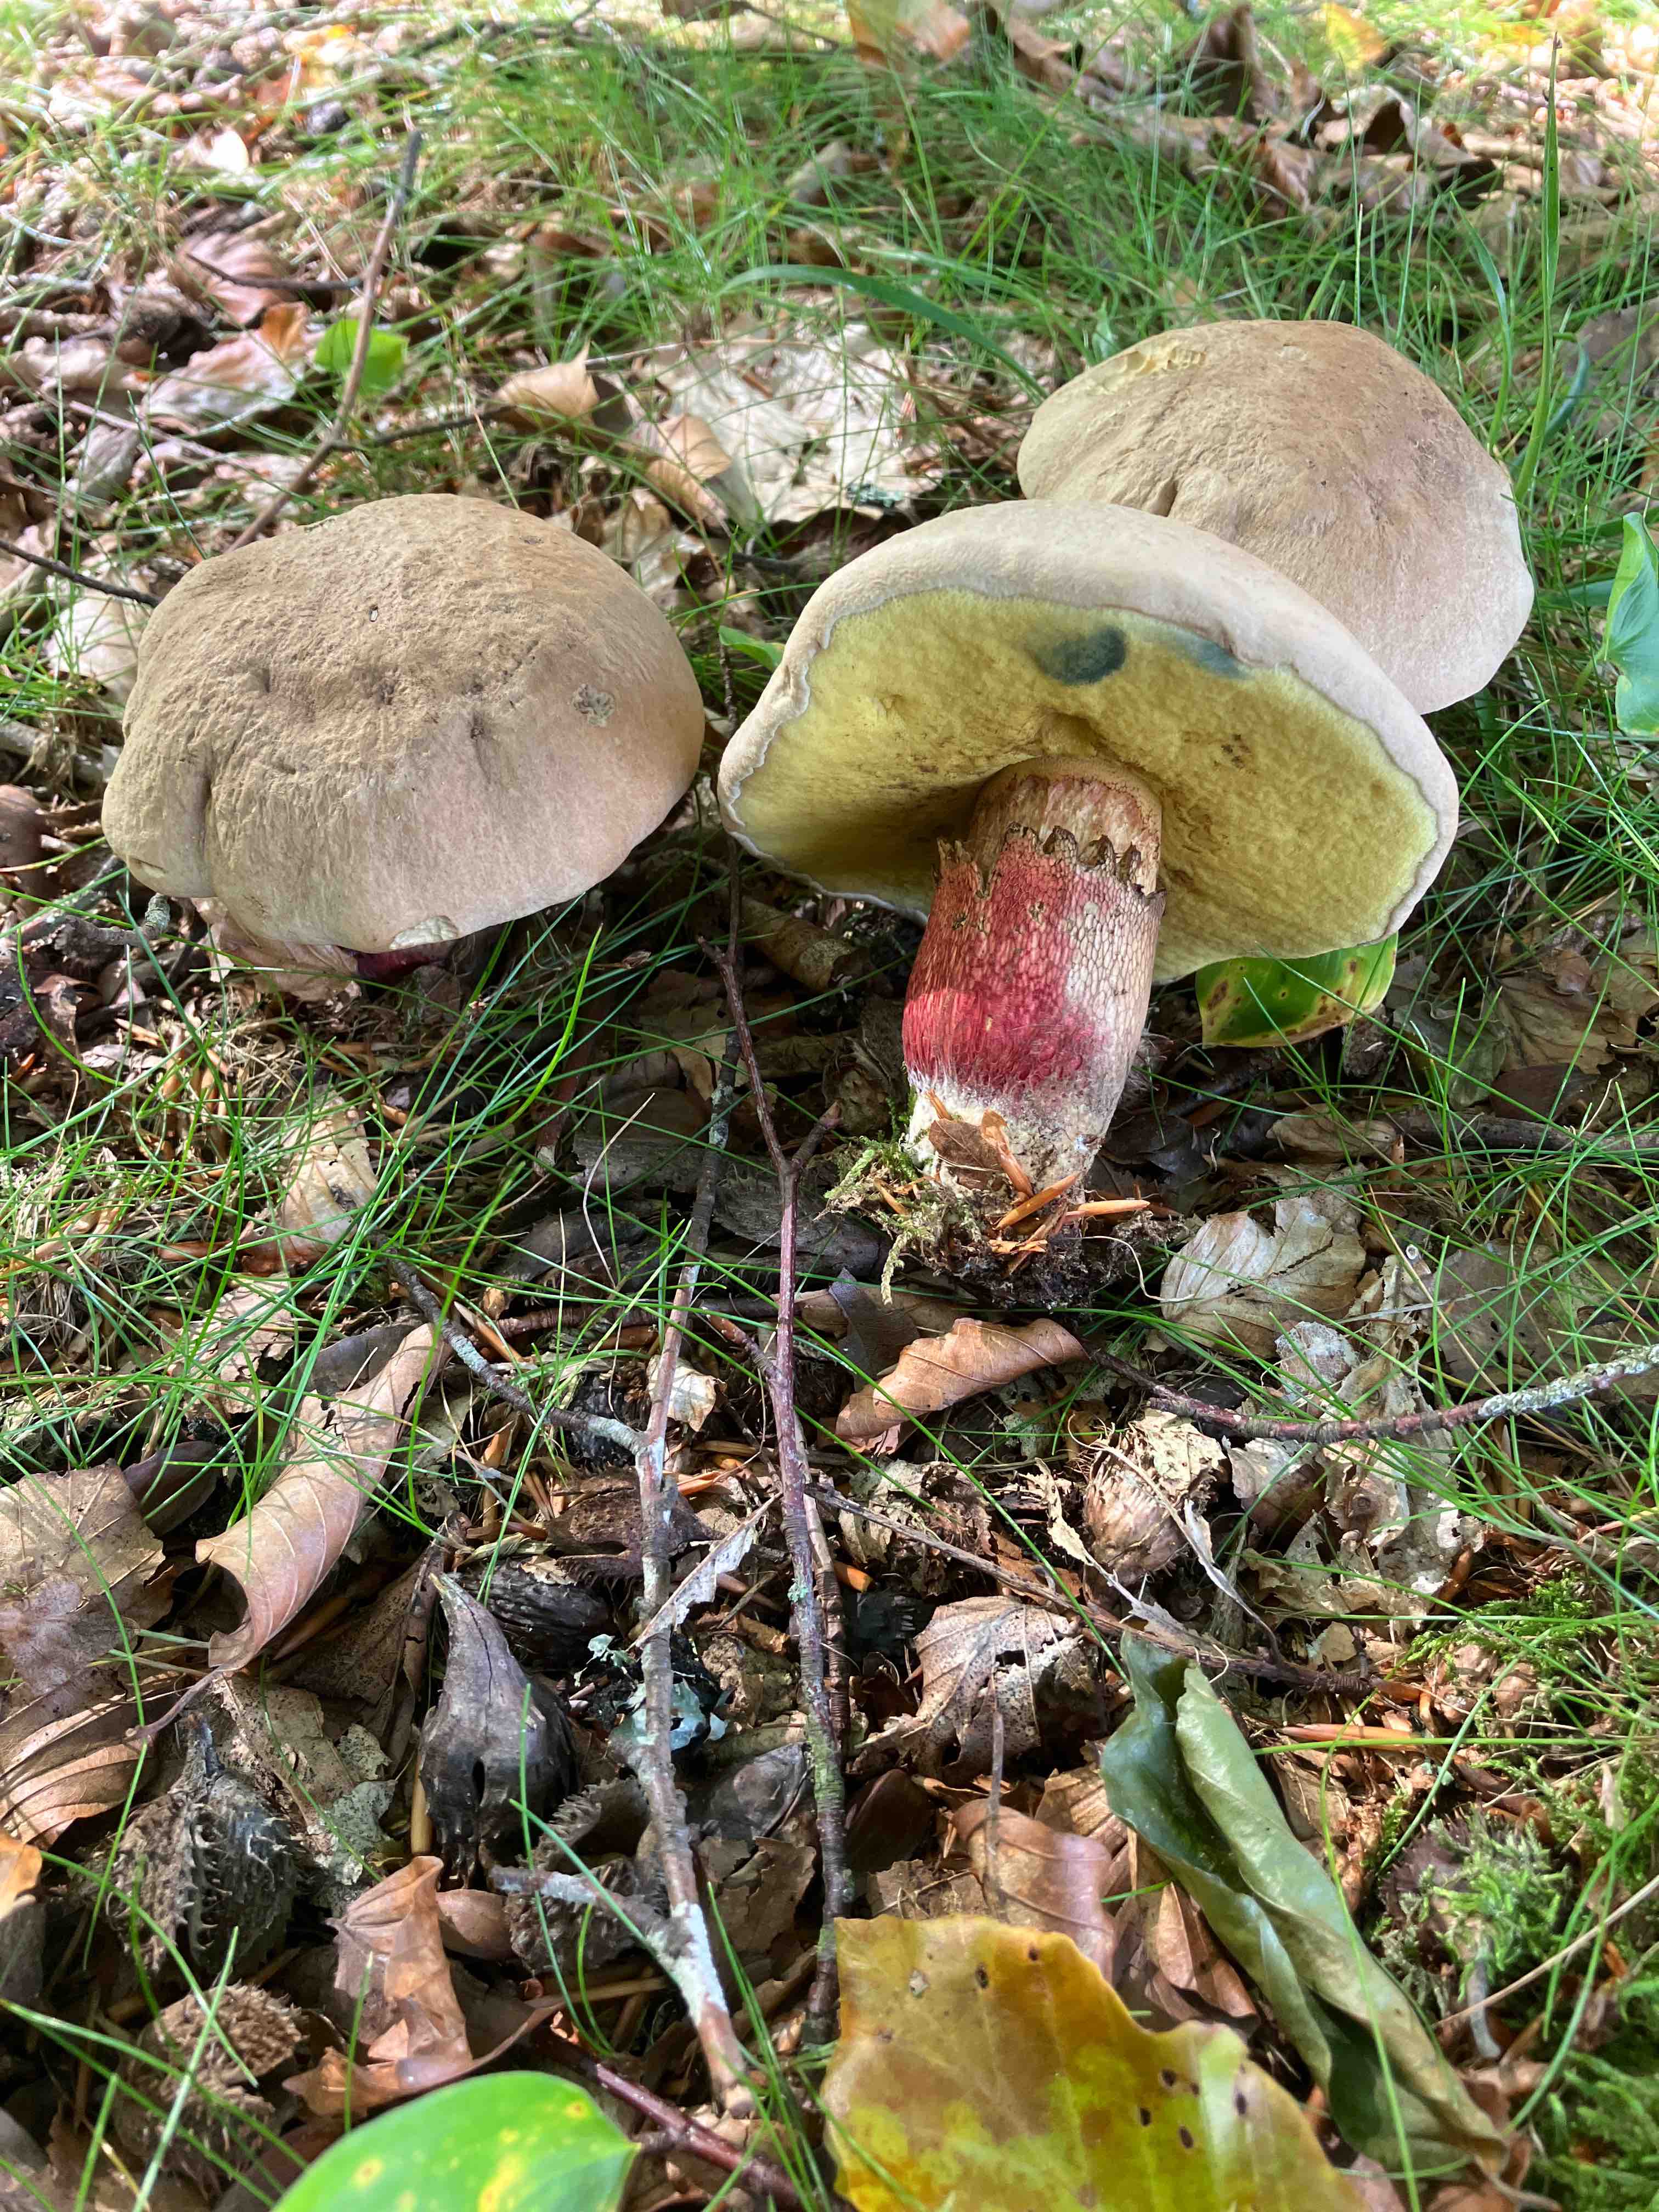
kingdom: Fungi
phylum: Basidiomycota
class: Agaricomycetes
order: Boletales
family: Boletaceae
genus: Caloboletus
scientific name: Caloboletus calopus
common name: skønfodet rørhat
